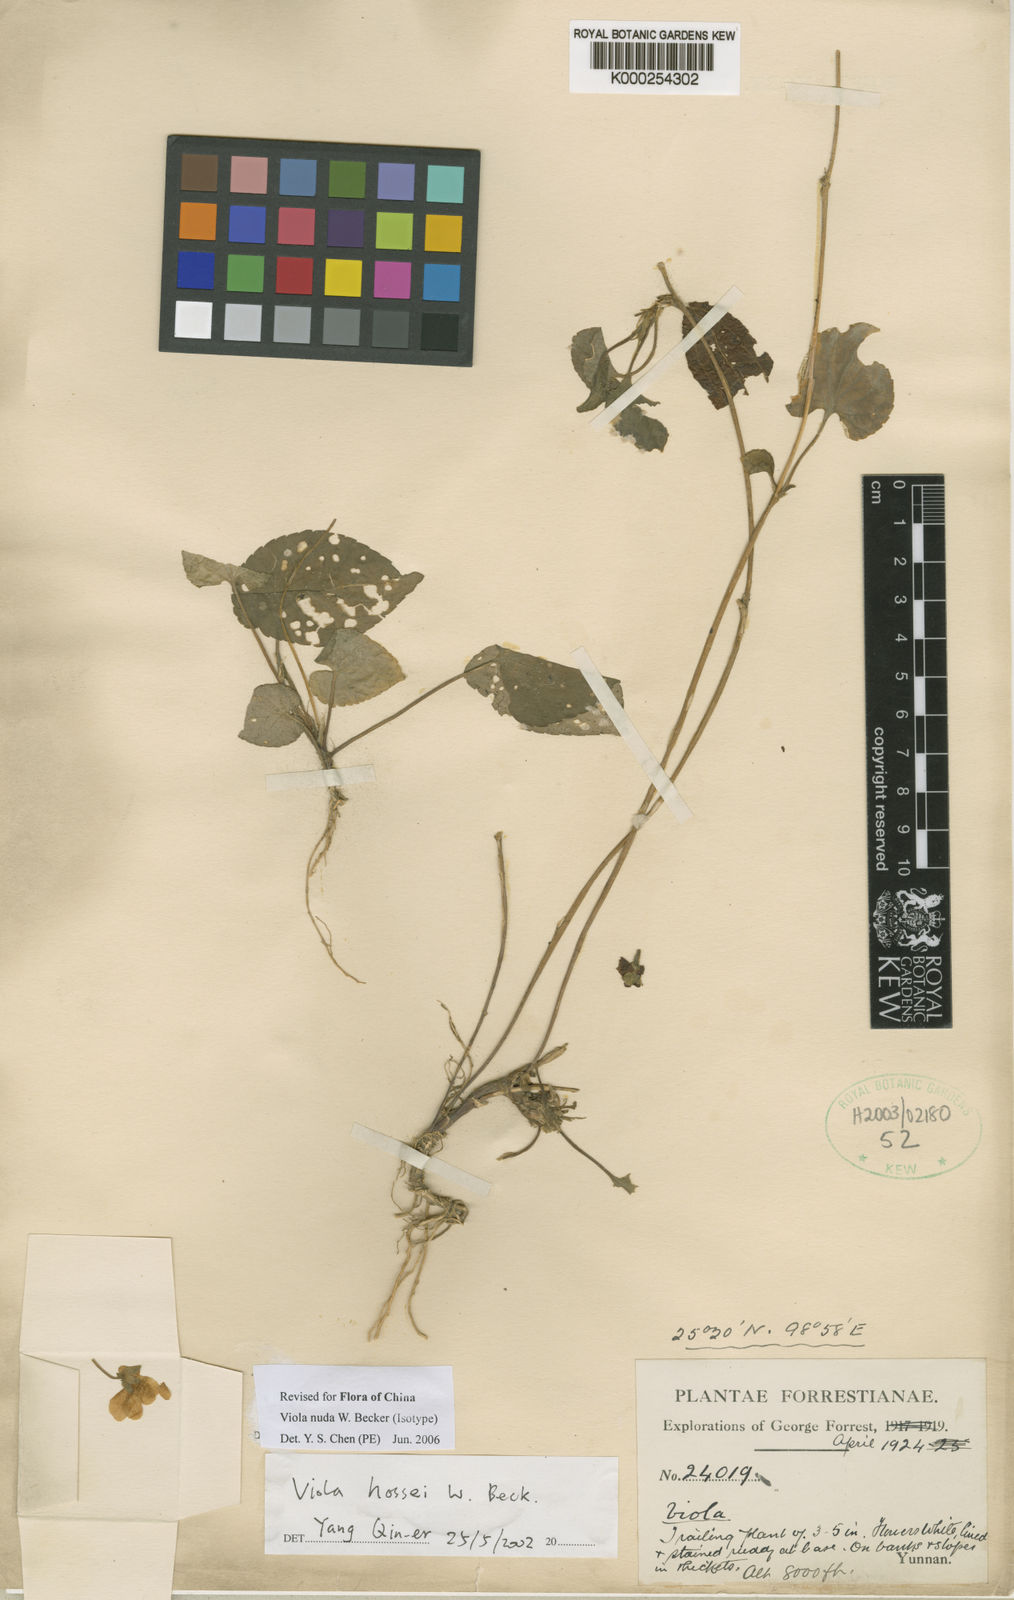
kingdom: Plantae
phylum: Tracheophyta
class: Magnoliopsida
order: Malpighiales
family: Violaceae
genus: Viola
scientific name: Viola nuda
